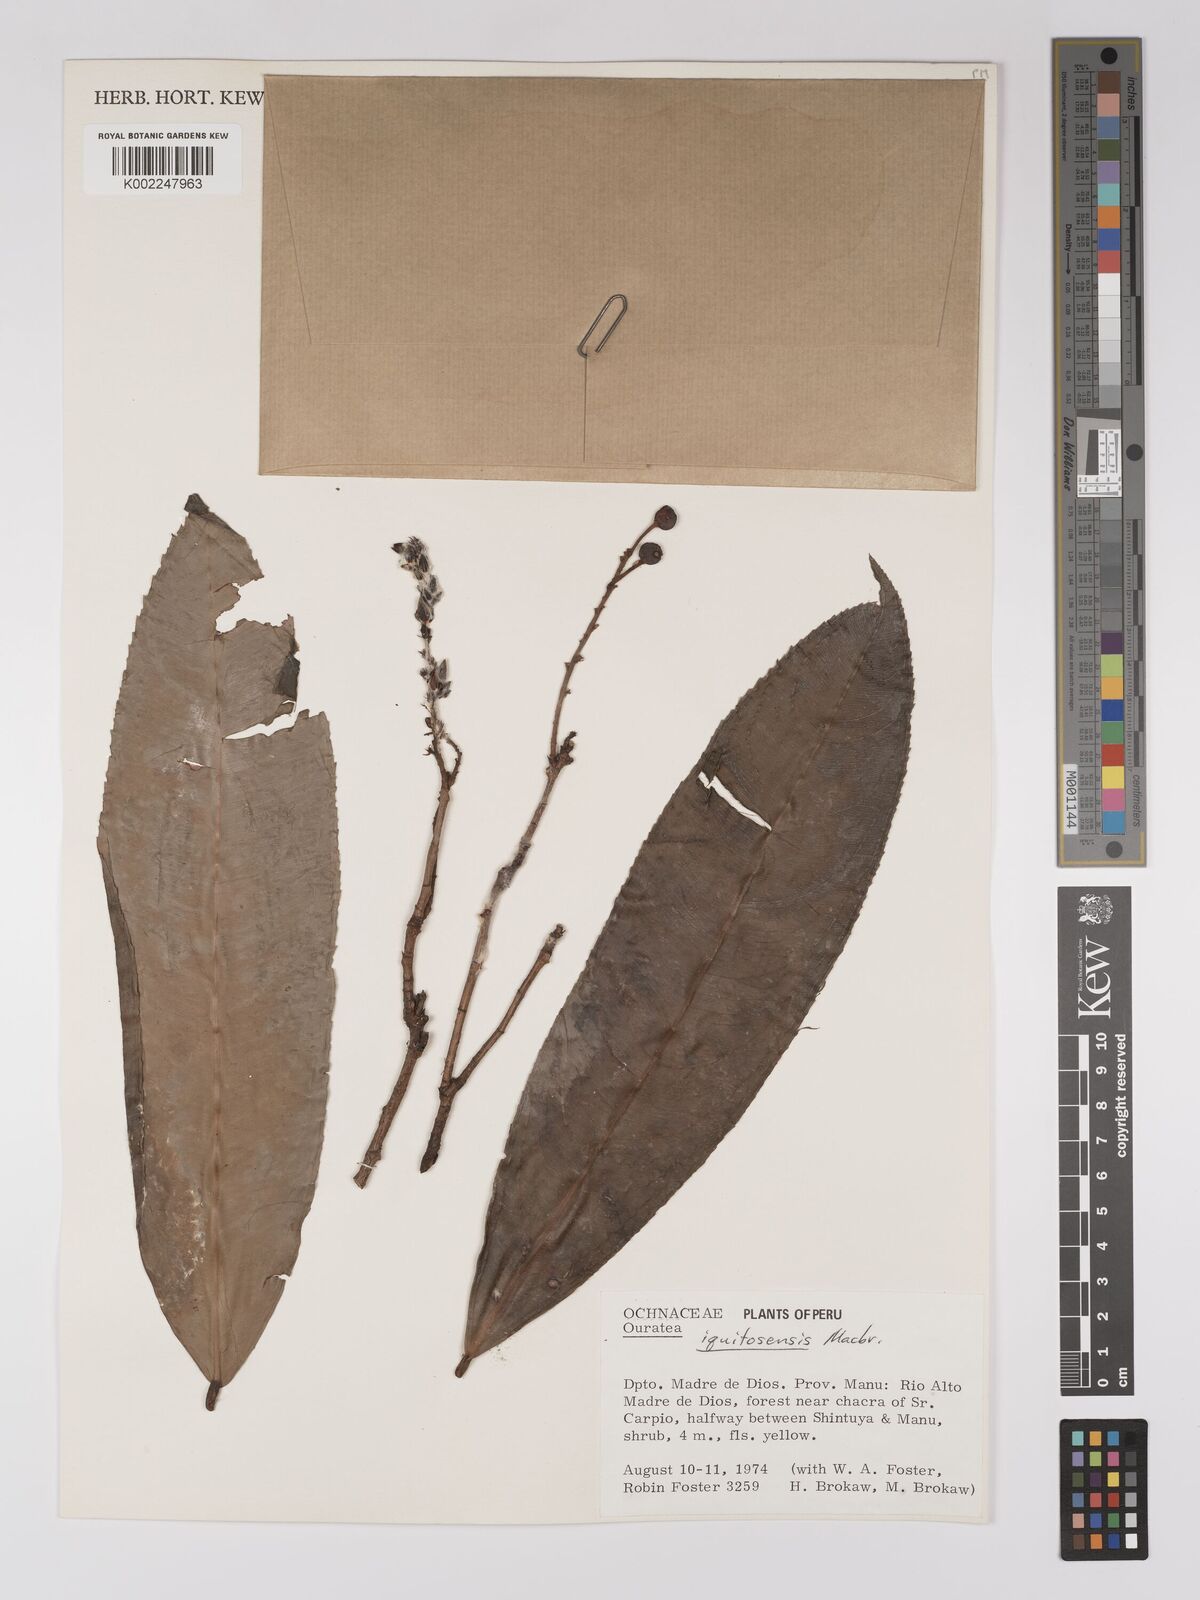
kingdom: Plantae
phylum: Tracheophyta
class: Magnoliopsida
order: Malpighiales
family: Ochnaceae
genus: Ouratea
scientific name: Ouratea iquitosensis
